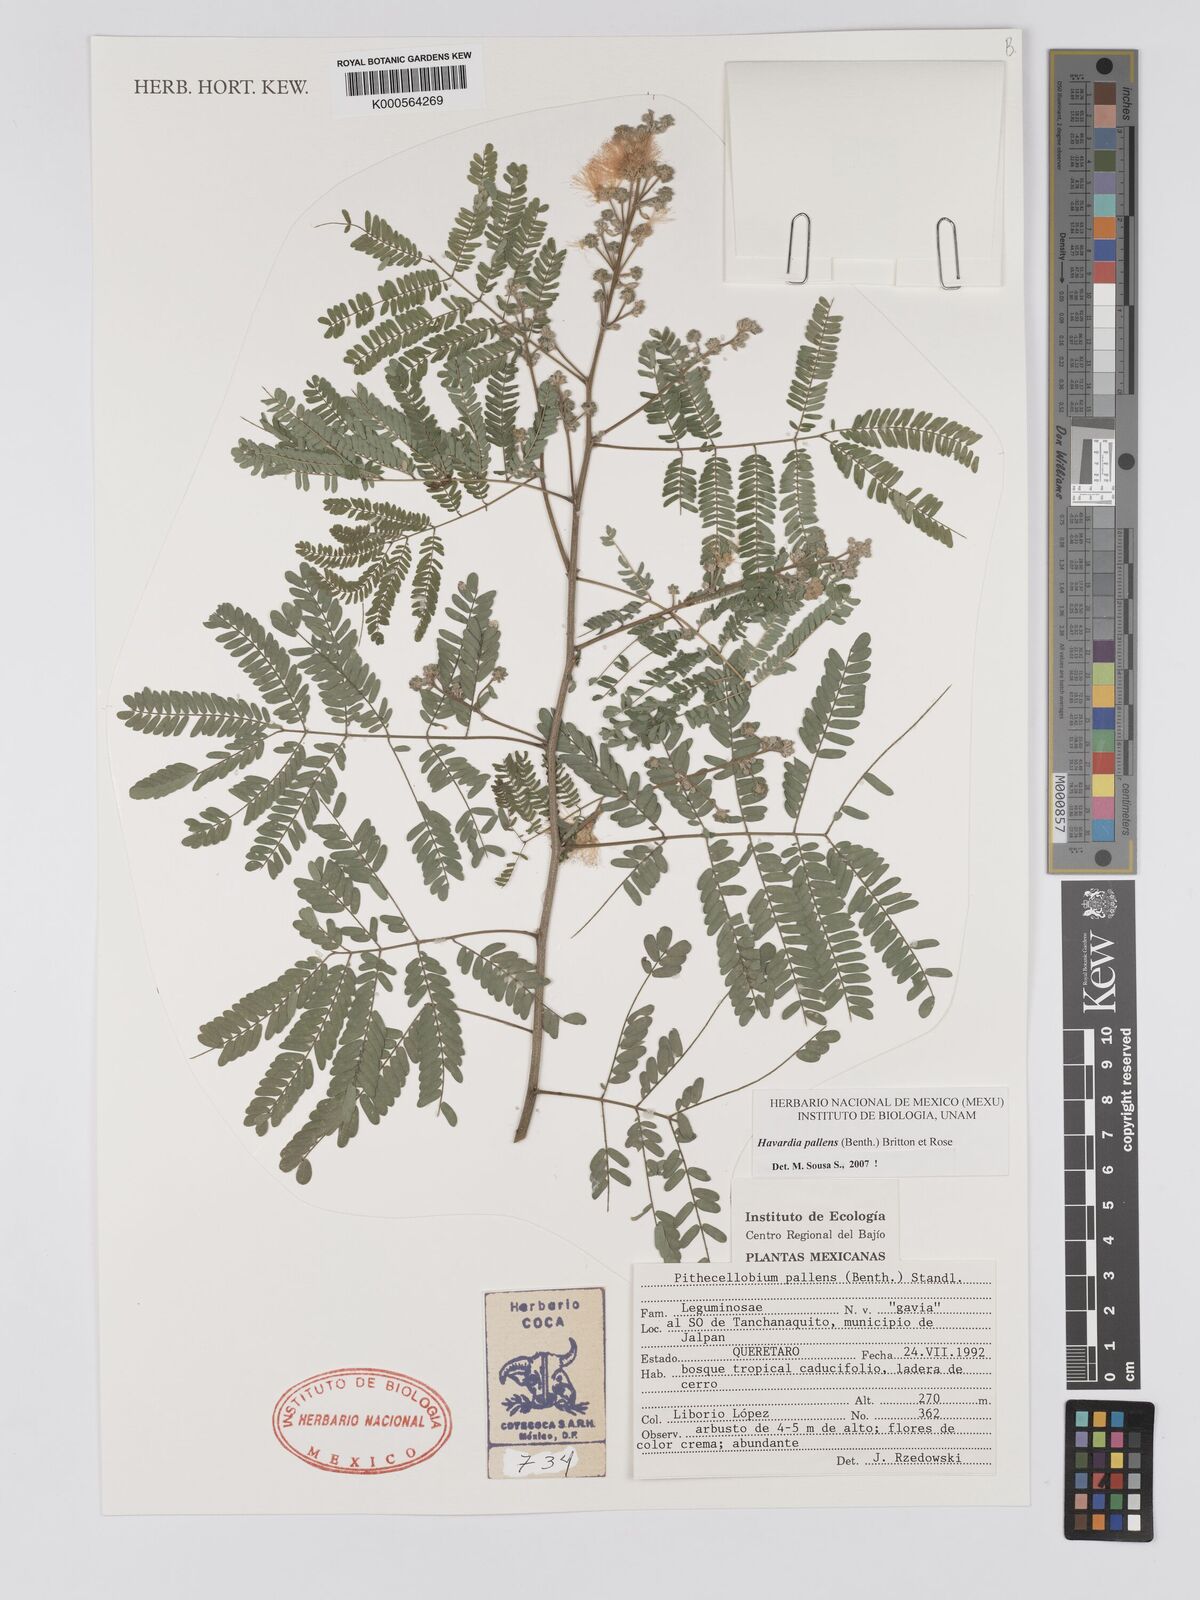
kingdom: Plantae
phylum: Tracheophyta
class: Magnoliopsida
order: Fabales
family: Fabaceae
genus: Havardia
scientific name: Havardia pallens
